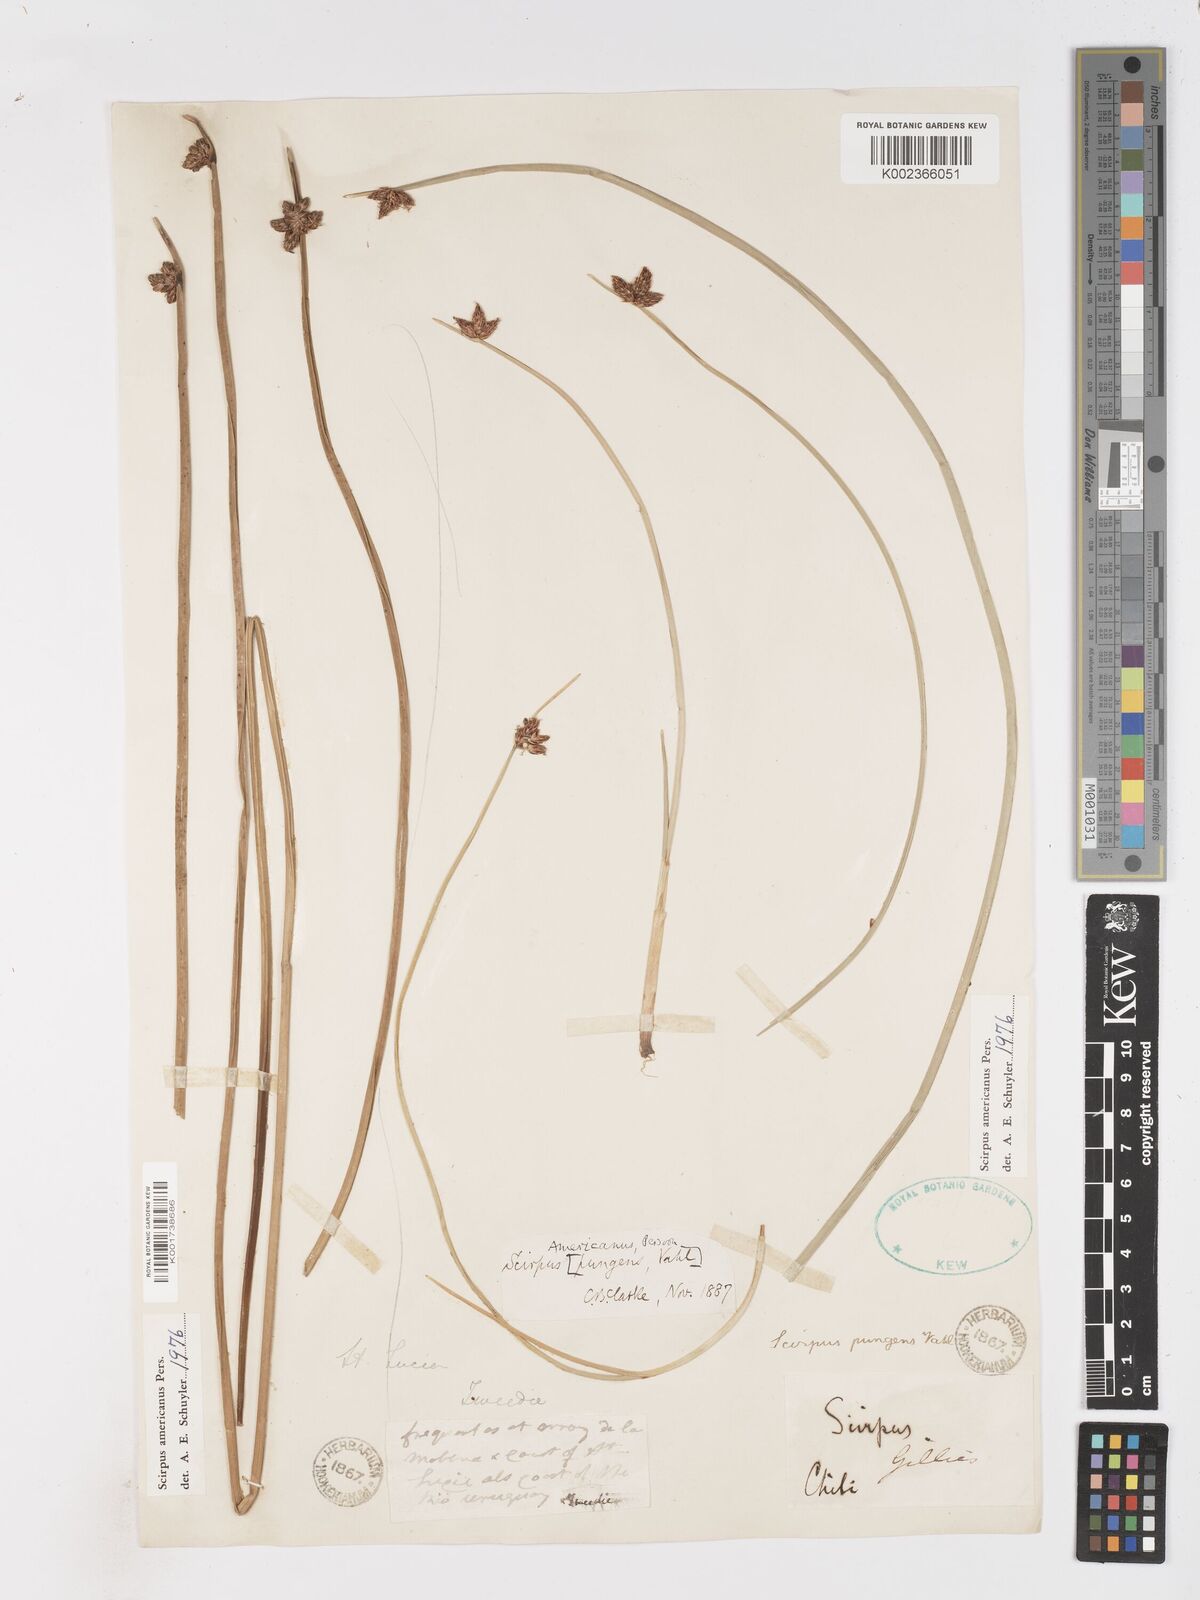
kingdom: Plantae
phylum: Tracheophyta
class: Liliopsida
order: Poales
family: Cyperaceae
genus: Schoenoplectus
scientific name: Schoenoplectus americanus
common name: American three-square bulrush
